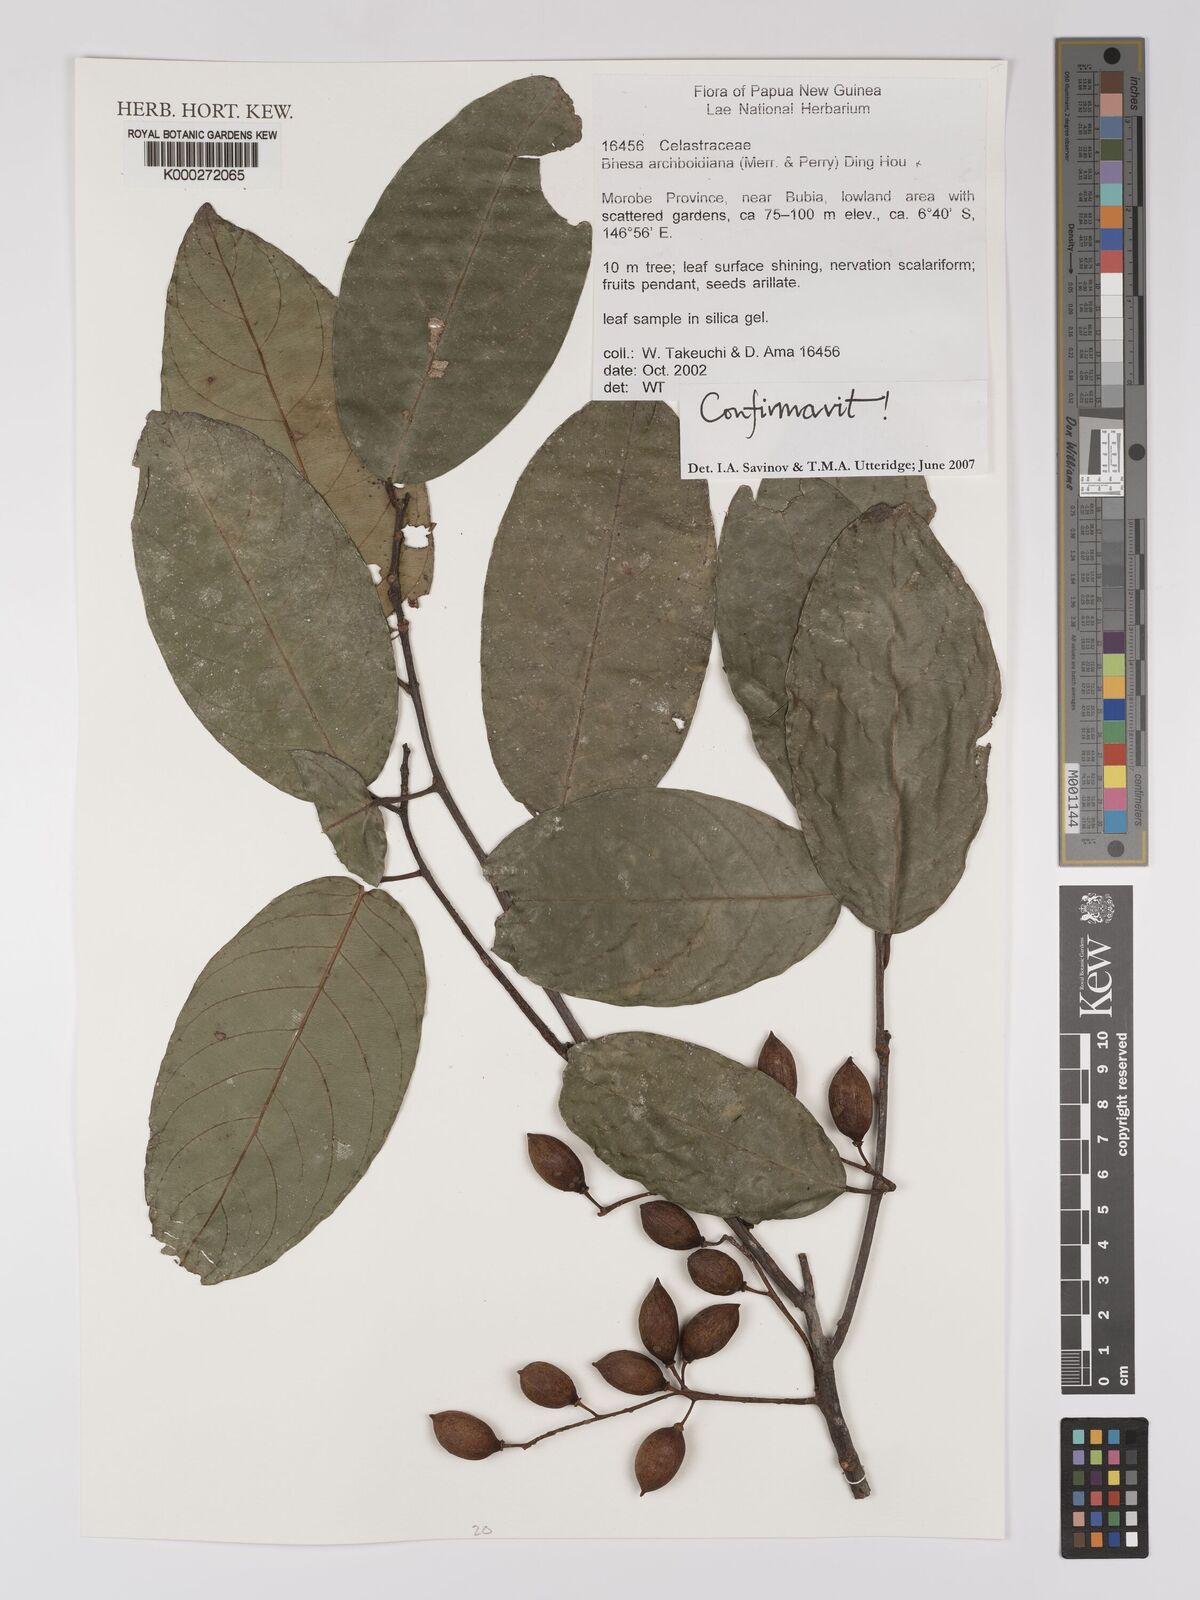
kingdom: Plantae
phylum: Tracheophyta
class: Magnoliopsida
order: Malpighiales
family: Centroplacaceae
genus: Bhesa
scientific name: Bhesa archboldiana
